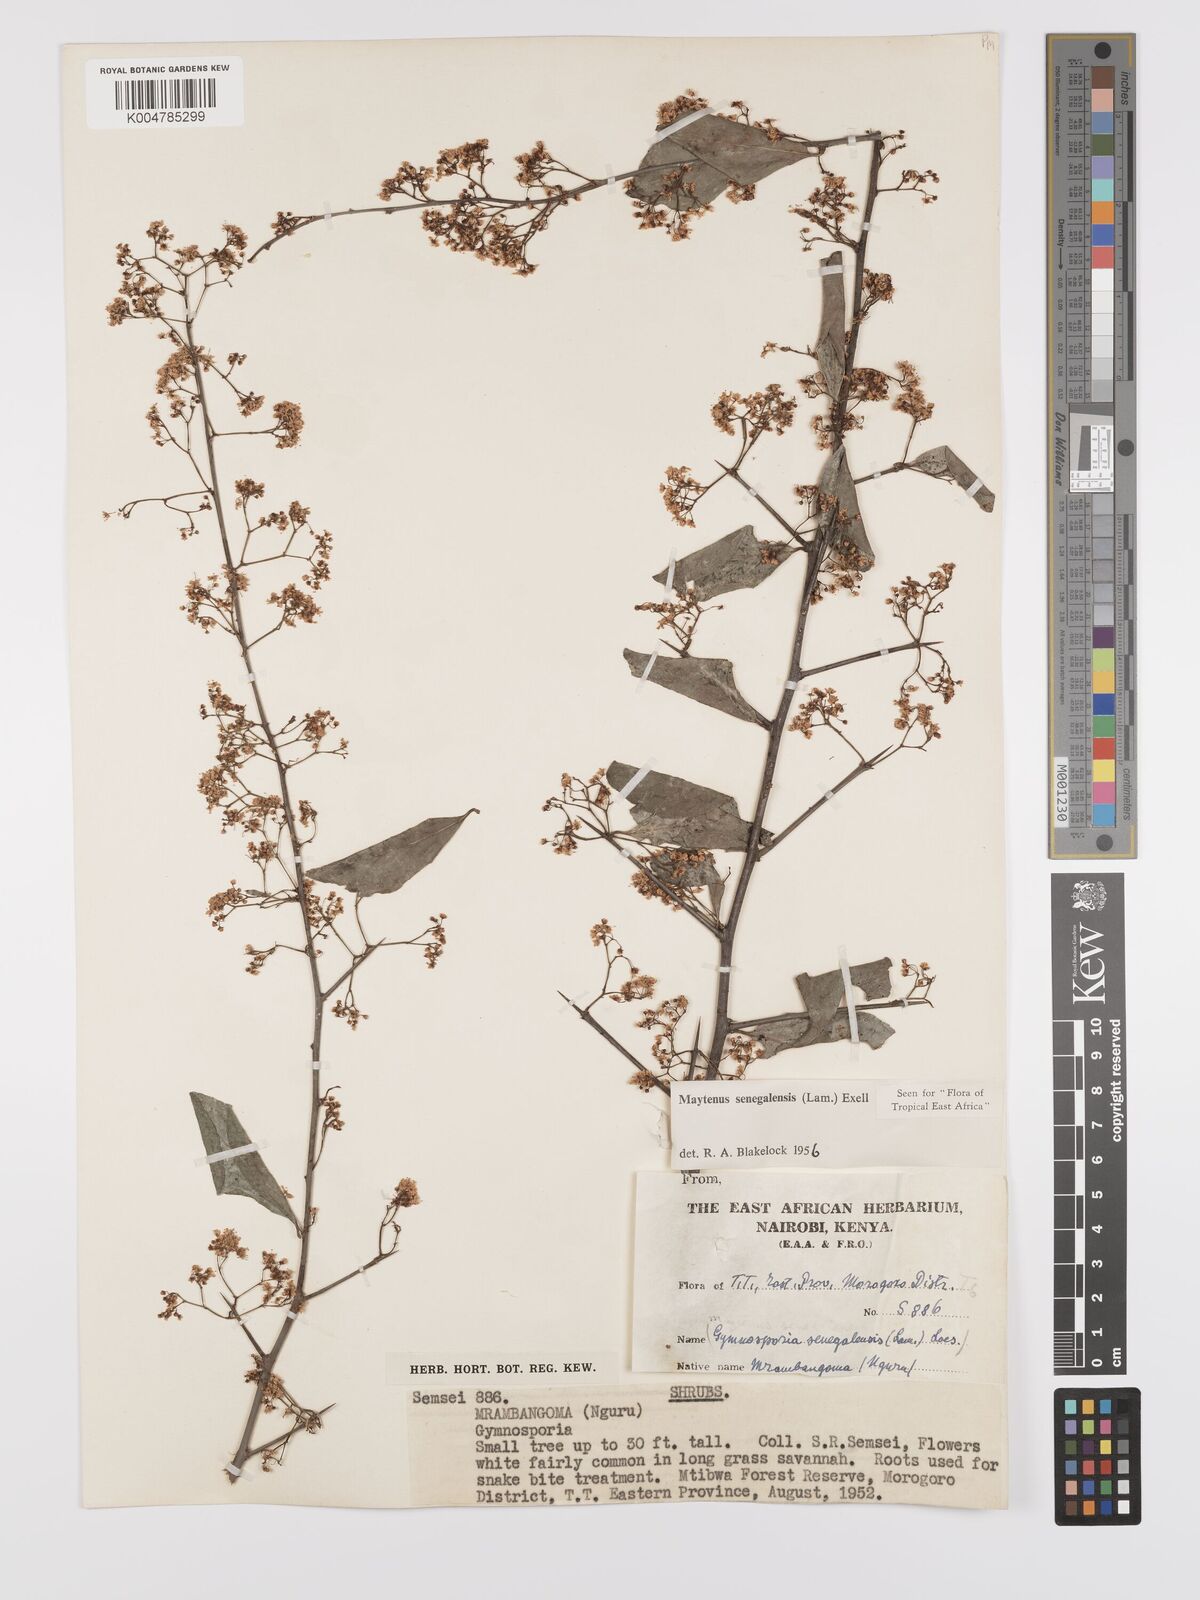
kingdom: Plantae
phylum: Tracheophyta
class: Magnoliopsida
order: Celastrales
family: Celastraceae
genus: Gymnosporia
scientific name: Gymnosporia nguruensis
